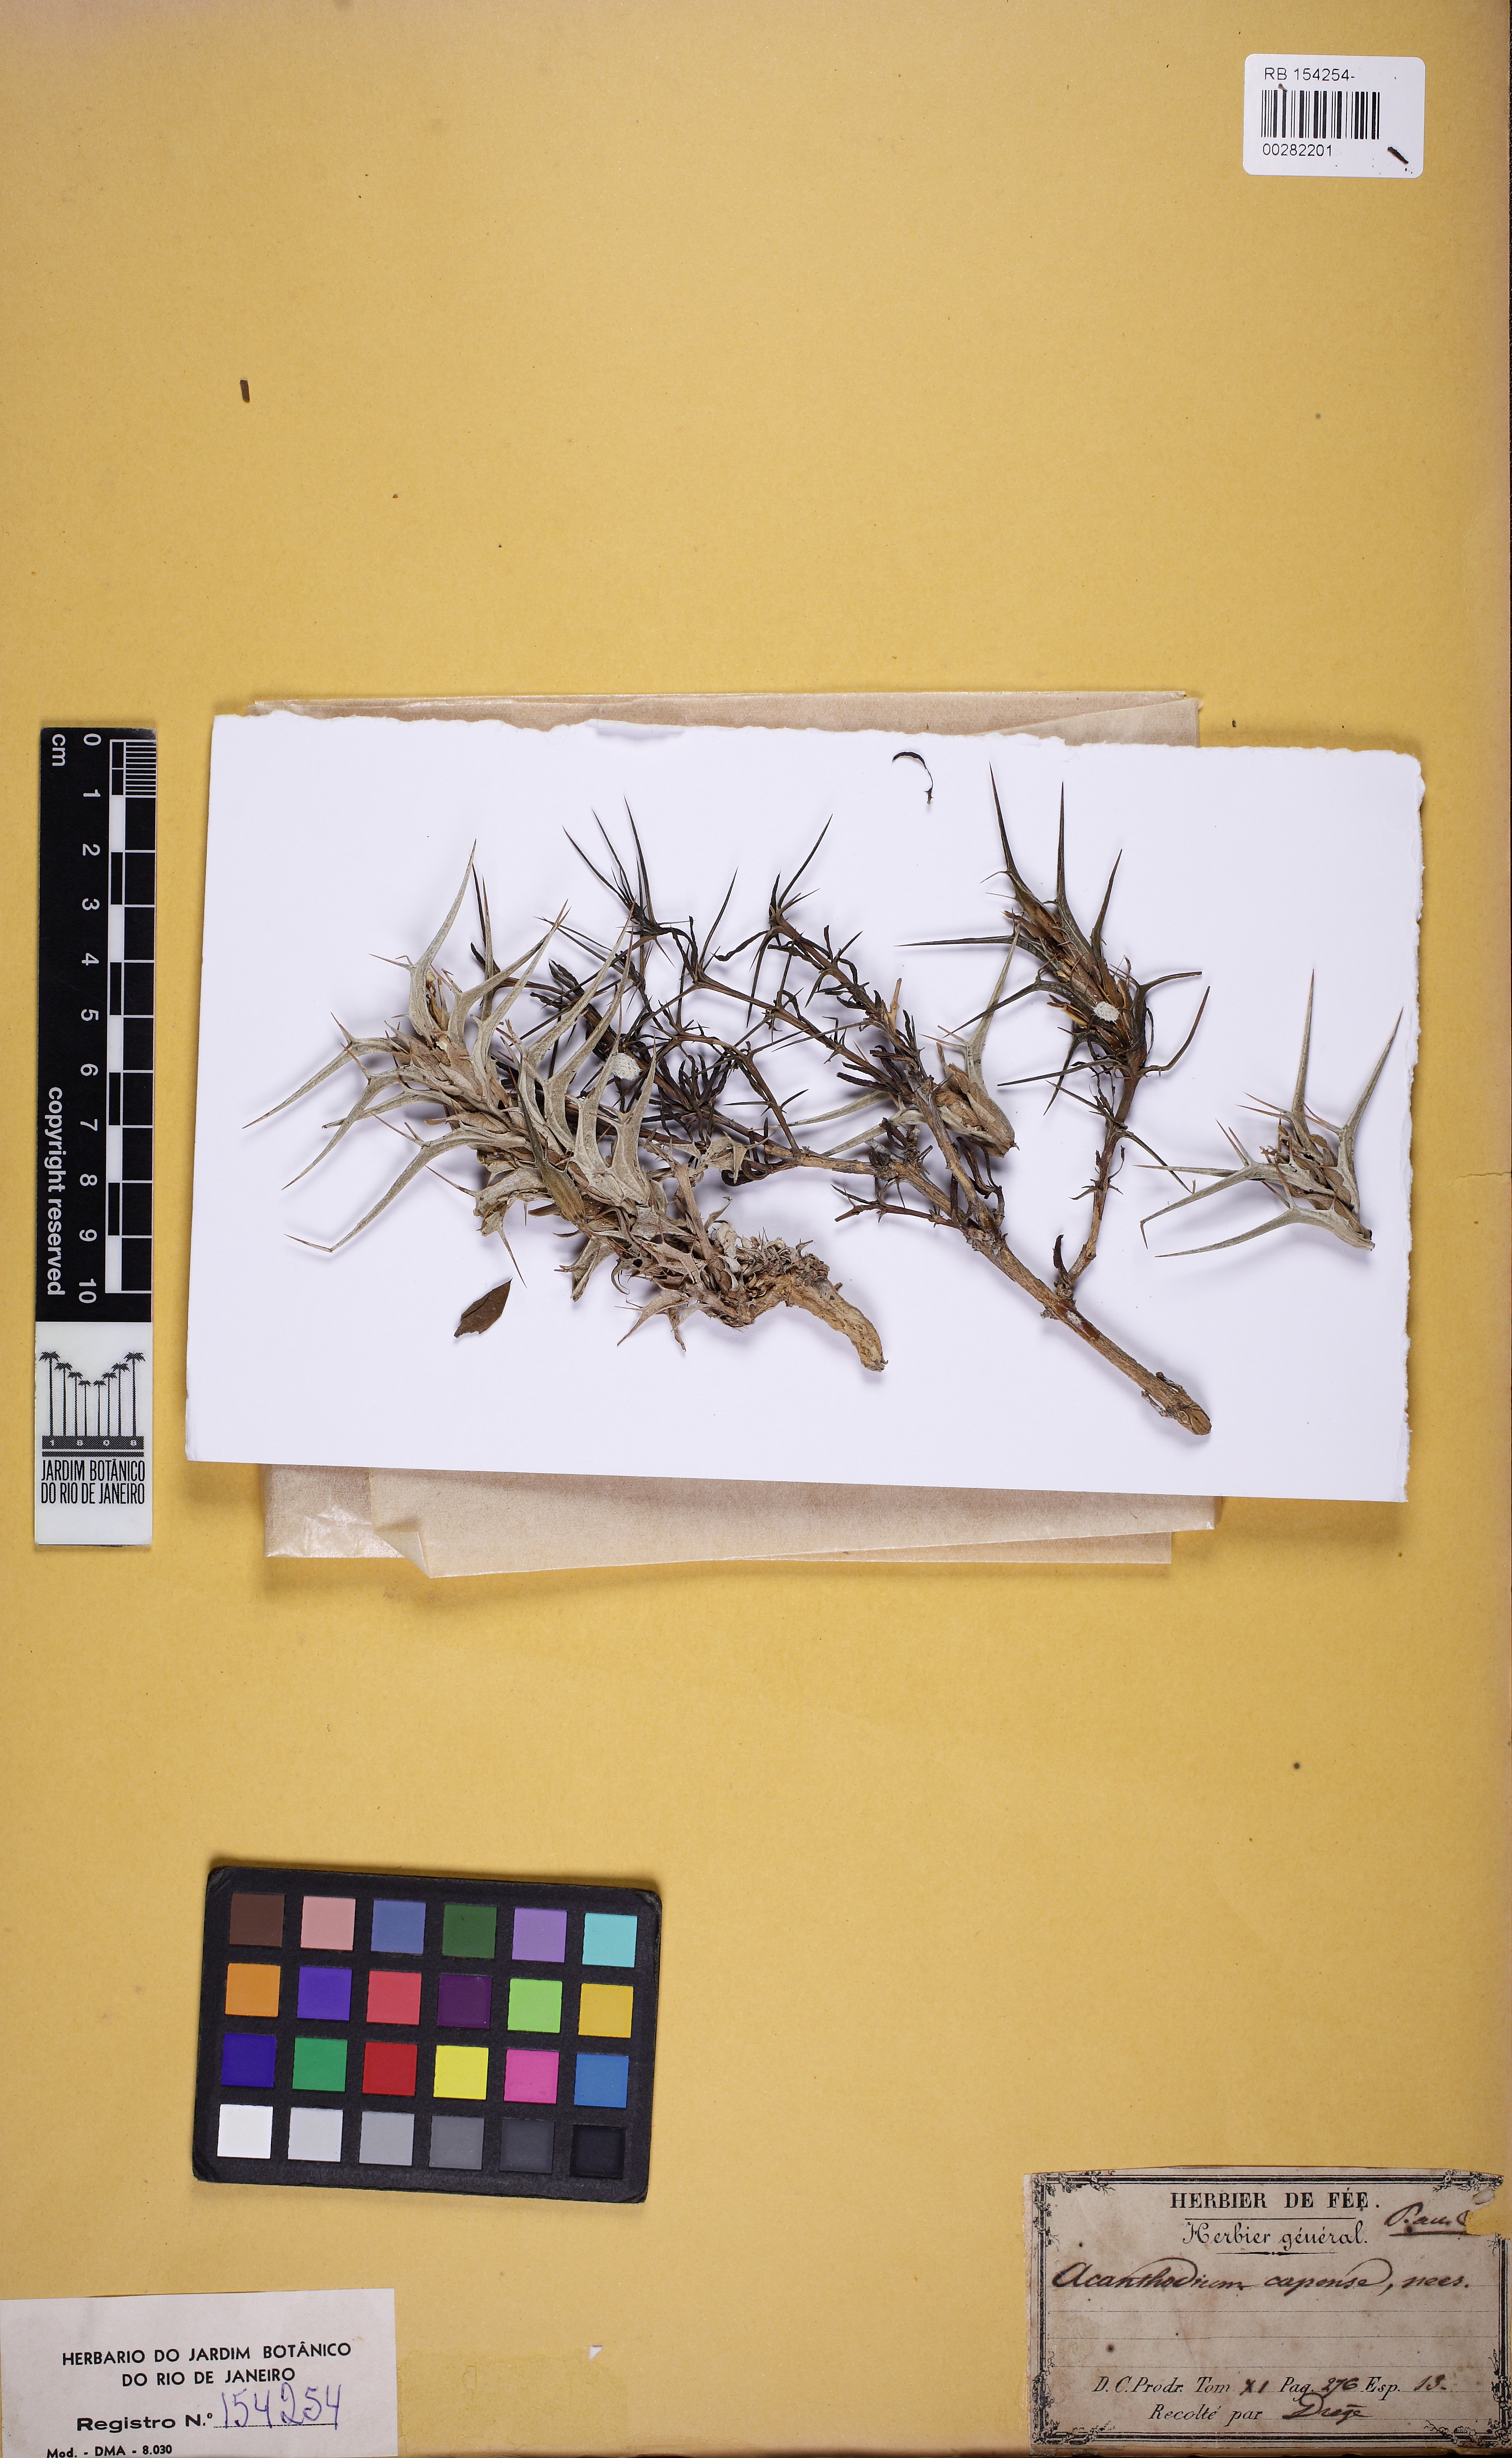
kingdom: Plantae
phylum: Tracheophyta
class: Magnoliopsida
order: Lamiales
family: Acanthaceae
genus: Blepharis
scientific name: Blepharis capensis
